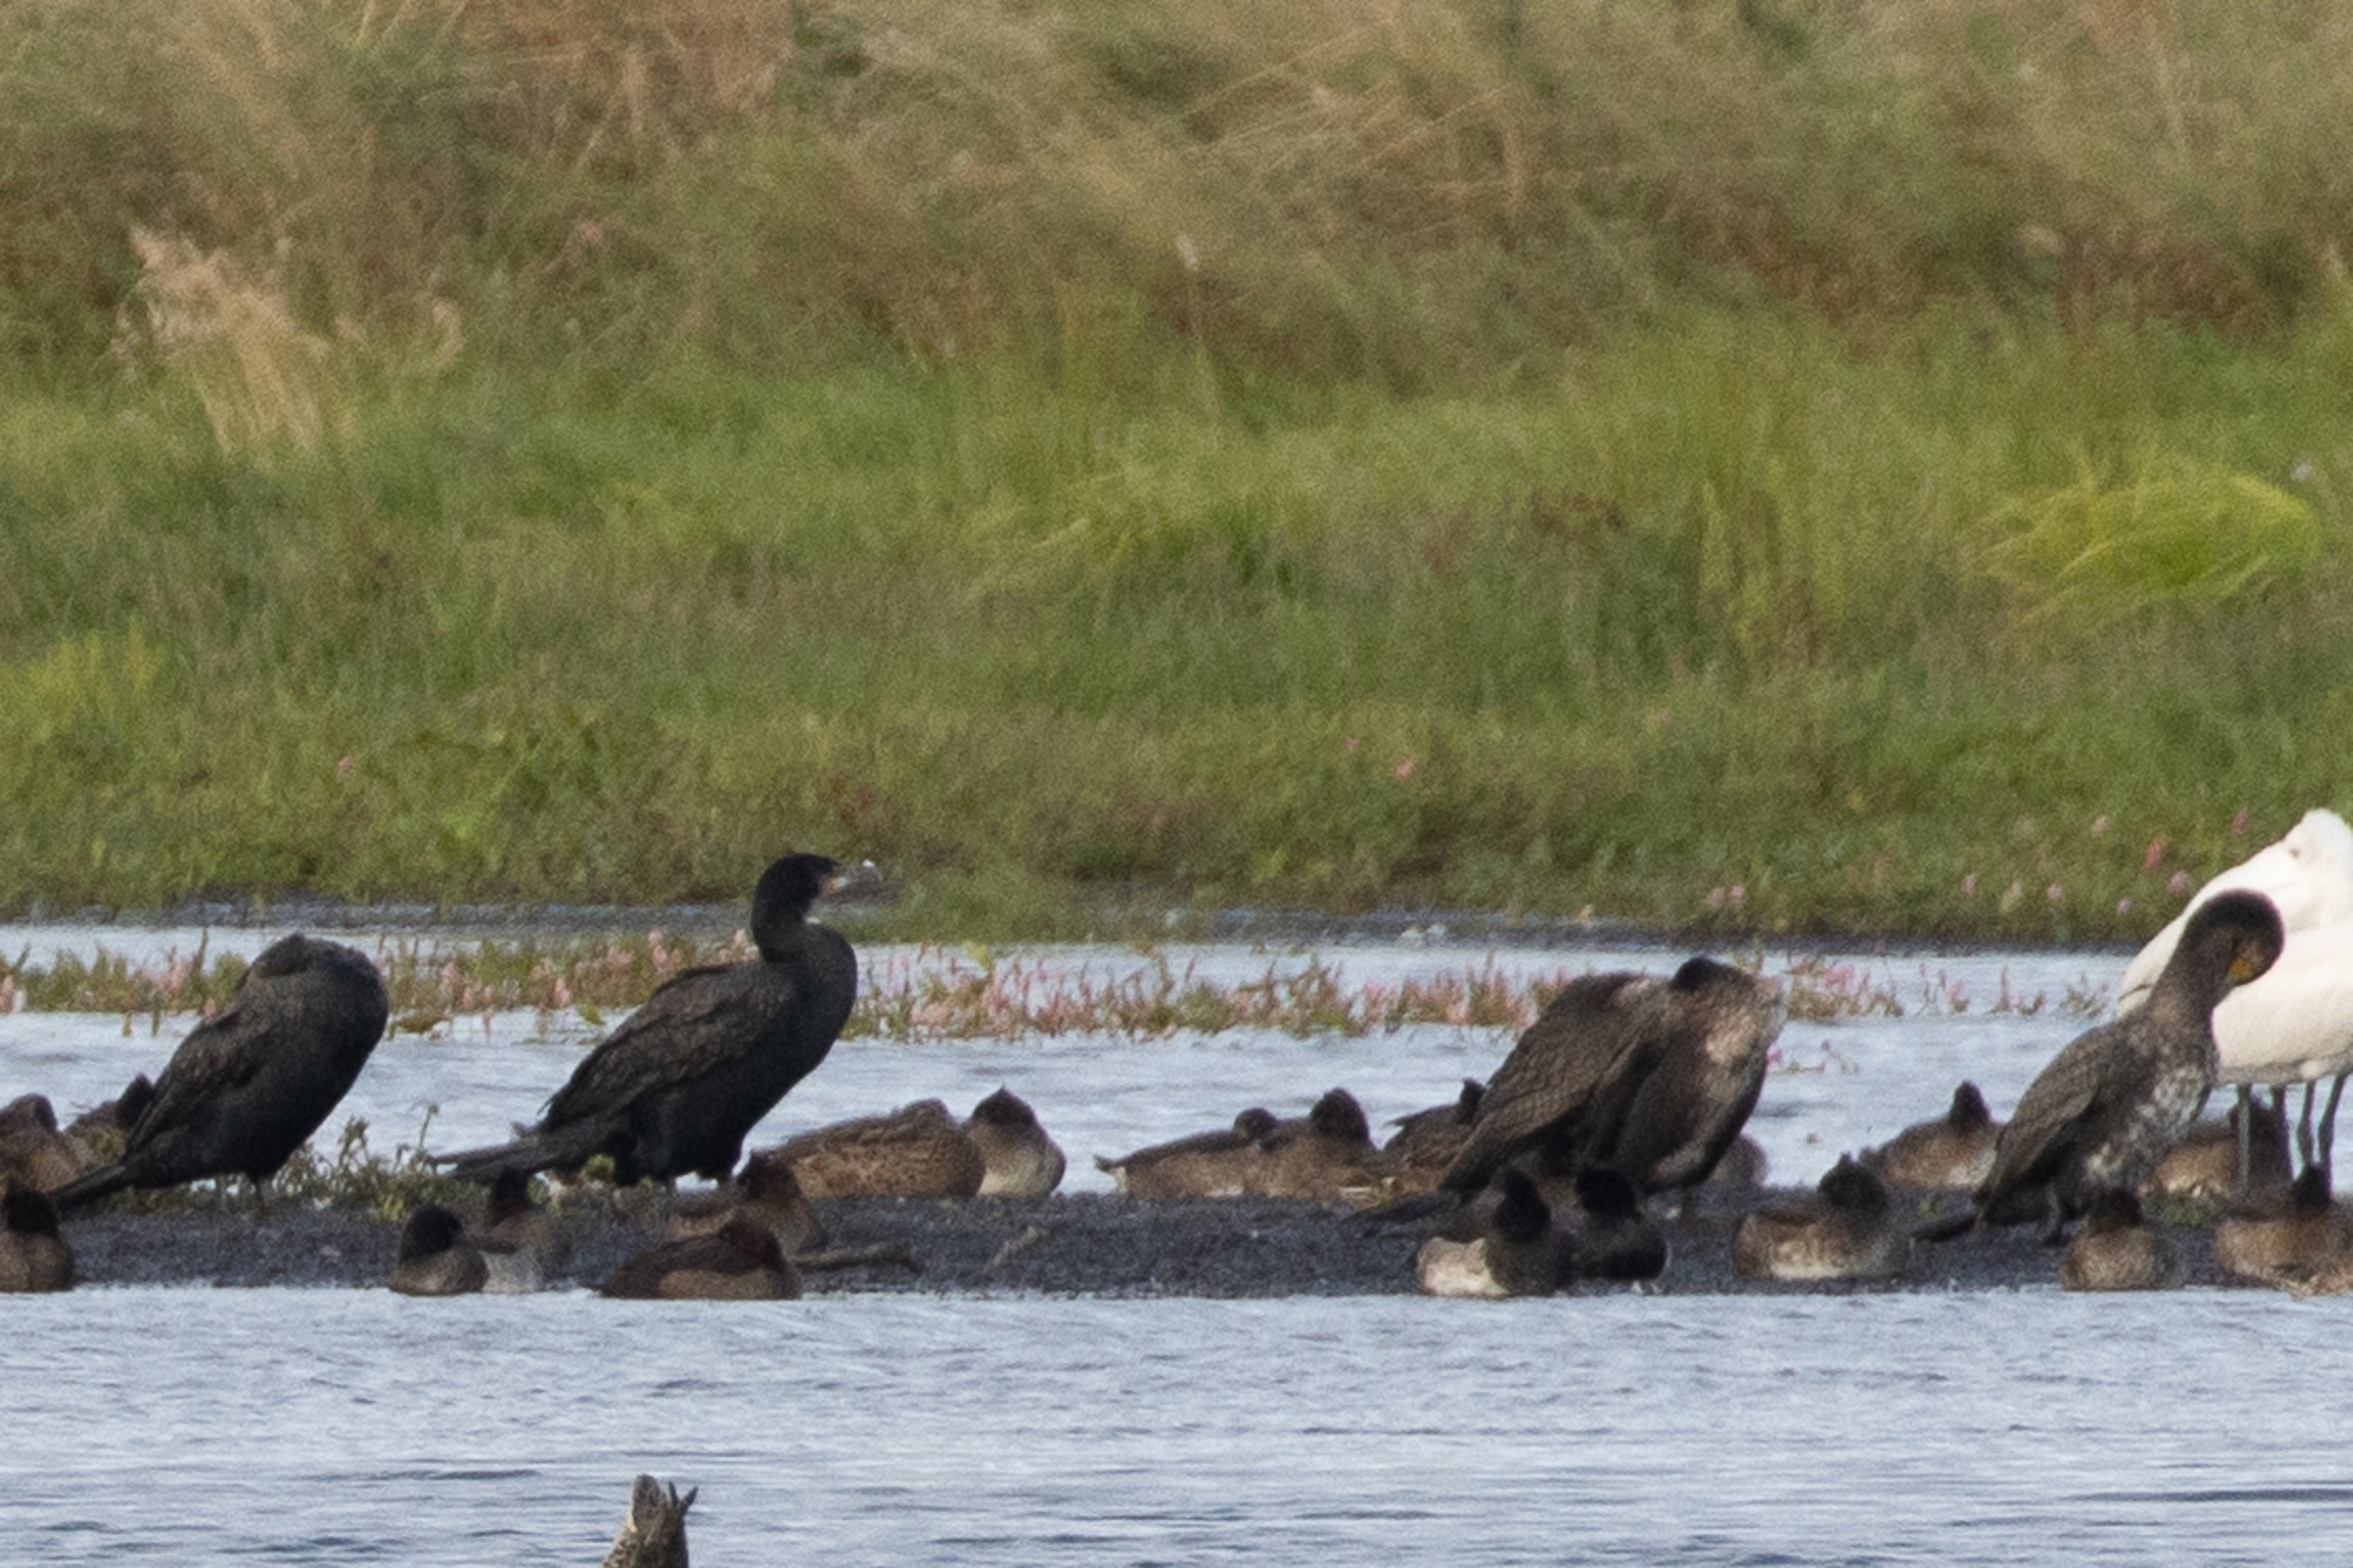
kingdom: Animalia
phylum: Chordata
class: Aves
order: Suliformes
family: Phalacrocoracidae
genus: Phalacrocorax
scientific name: Phalacrocorax carbo
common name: Skarv
